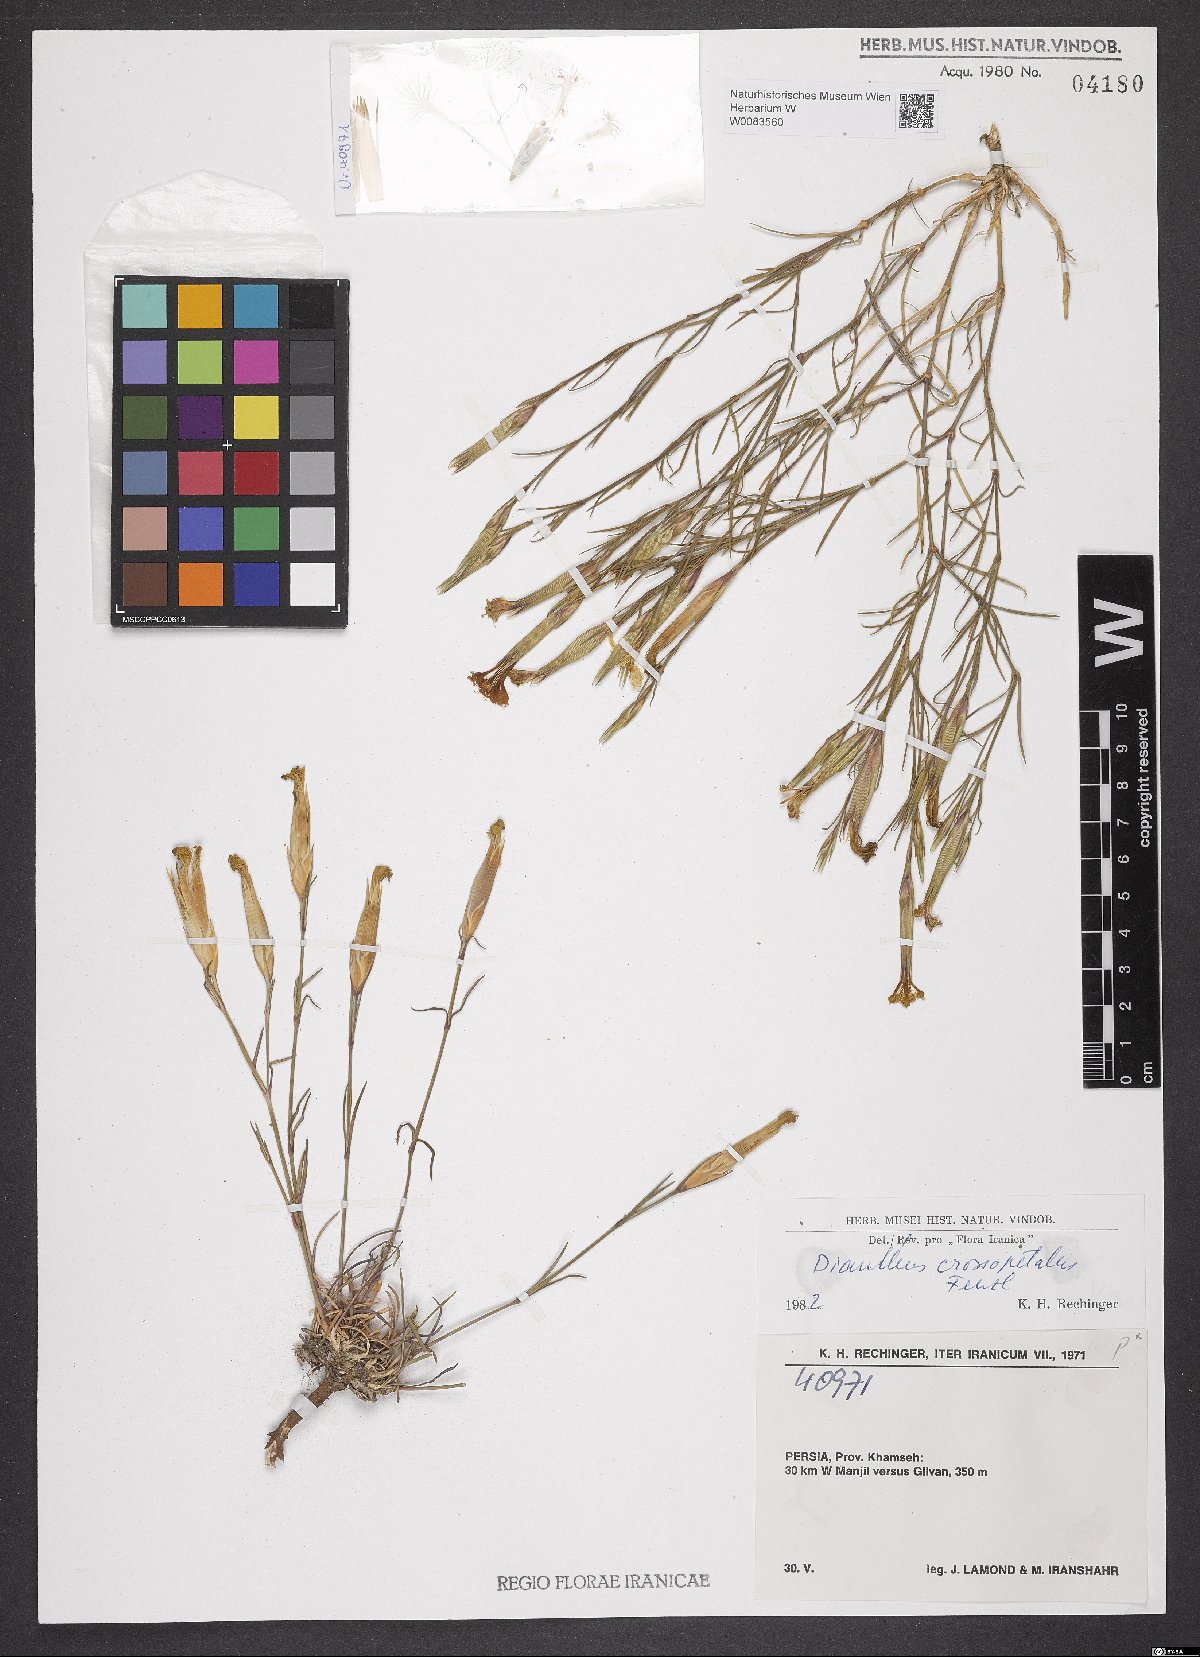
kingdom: Plantae
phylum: Tracheophyta
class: Magnoliopsida
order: Caryophyllales
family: Caryophyllaceae
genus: Dianthus
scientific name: Dianthus crossopetalus
